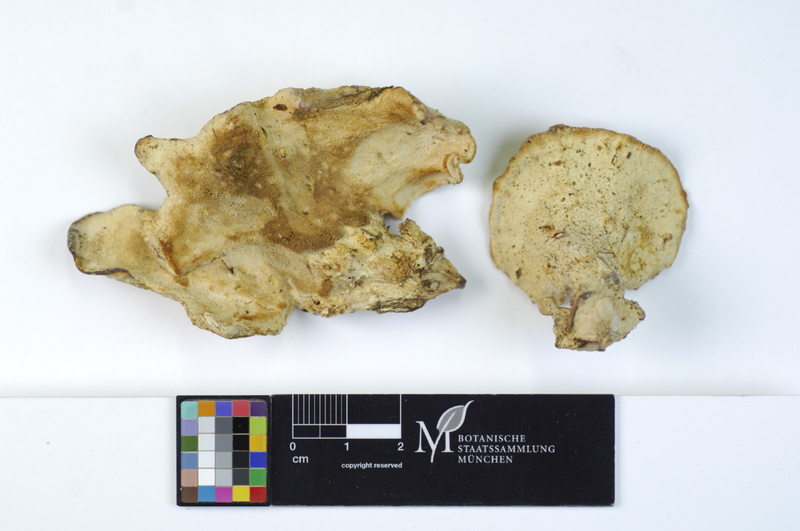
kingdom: Fungi
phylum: Basidiomycota
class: Agaricomycetes
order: Polyporales
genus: Calcipostia
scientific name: Calcipostia guttulata
